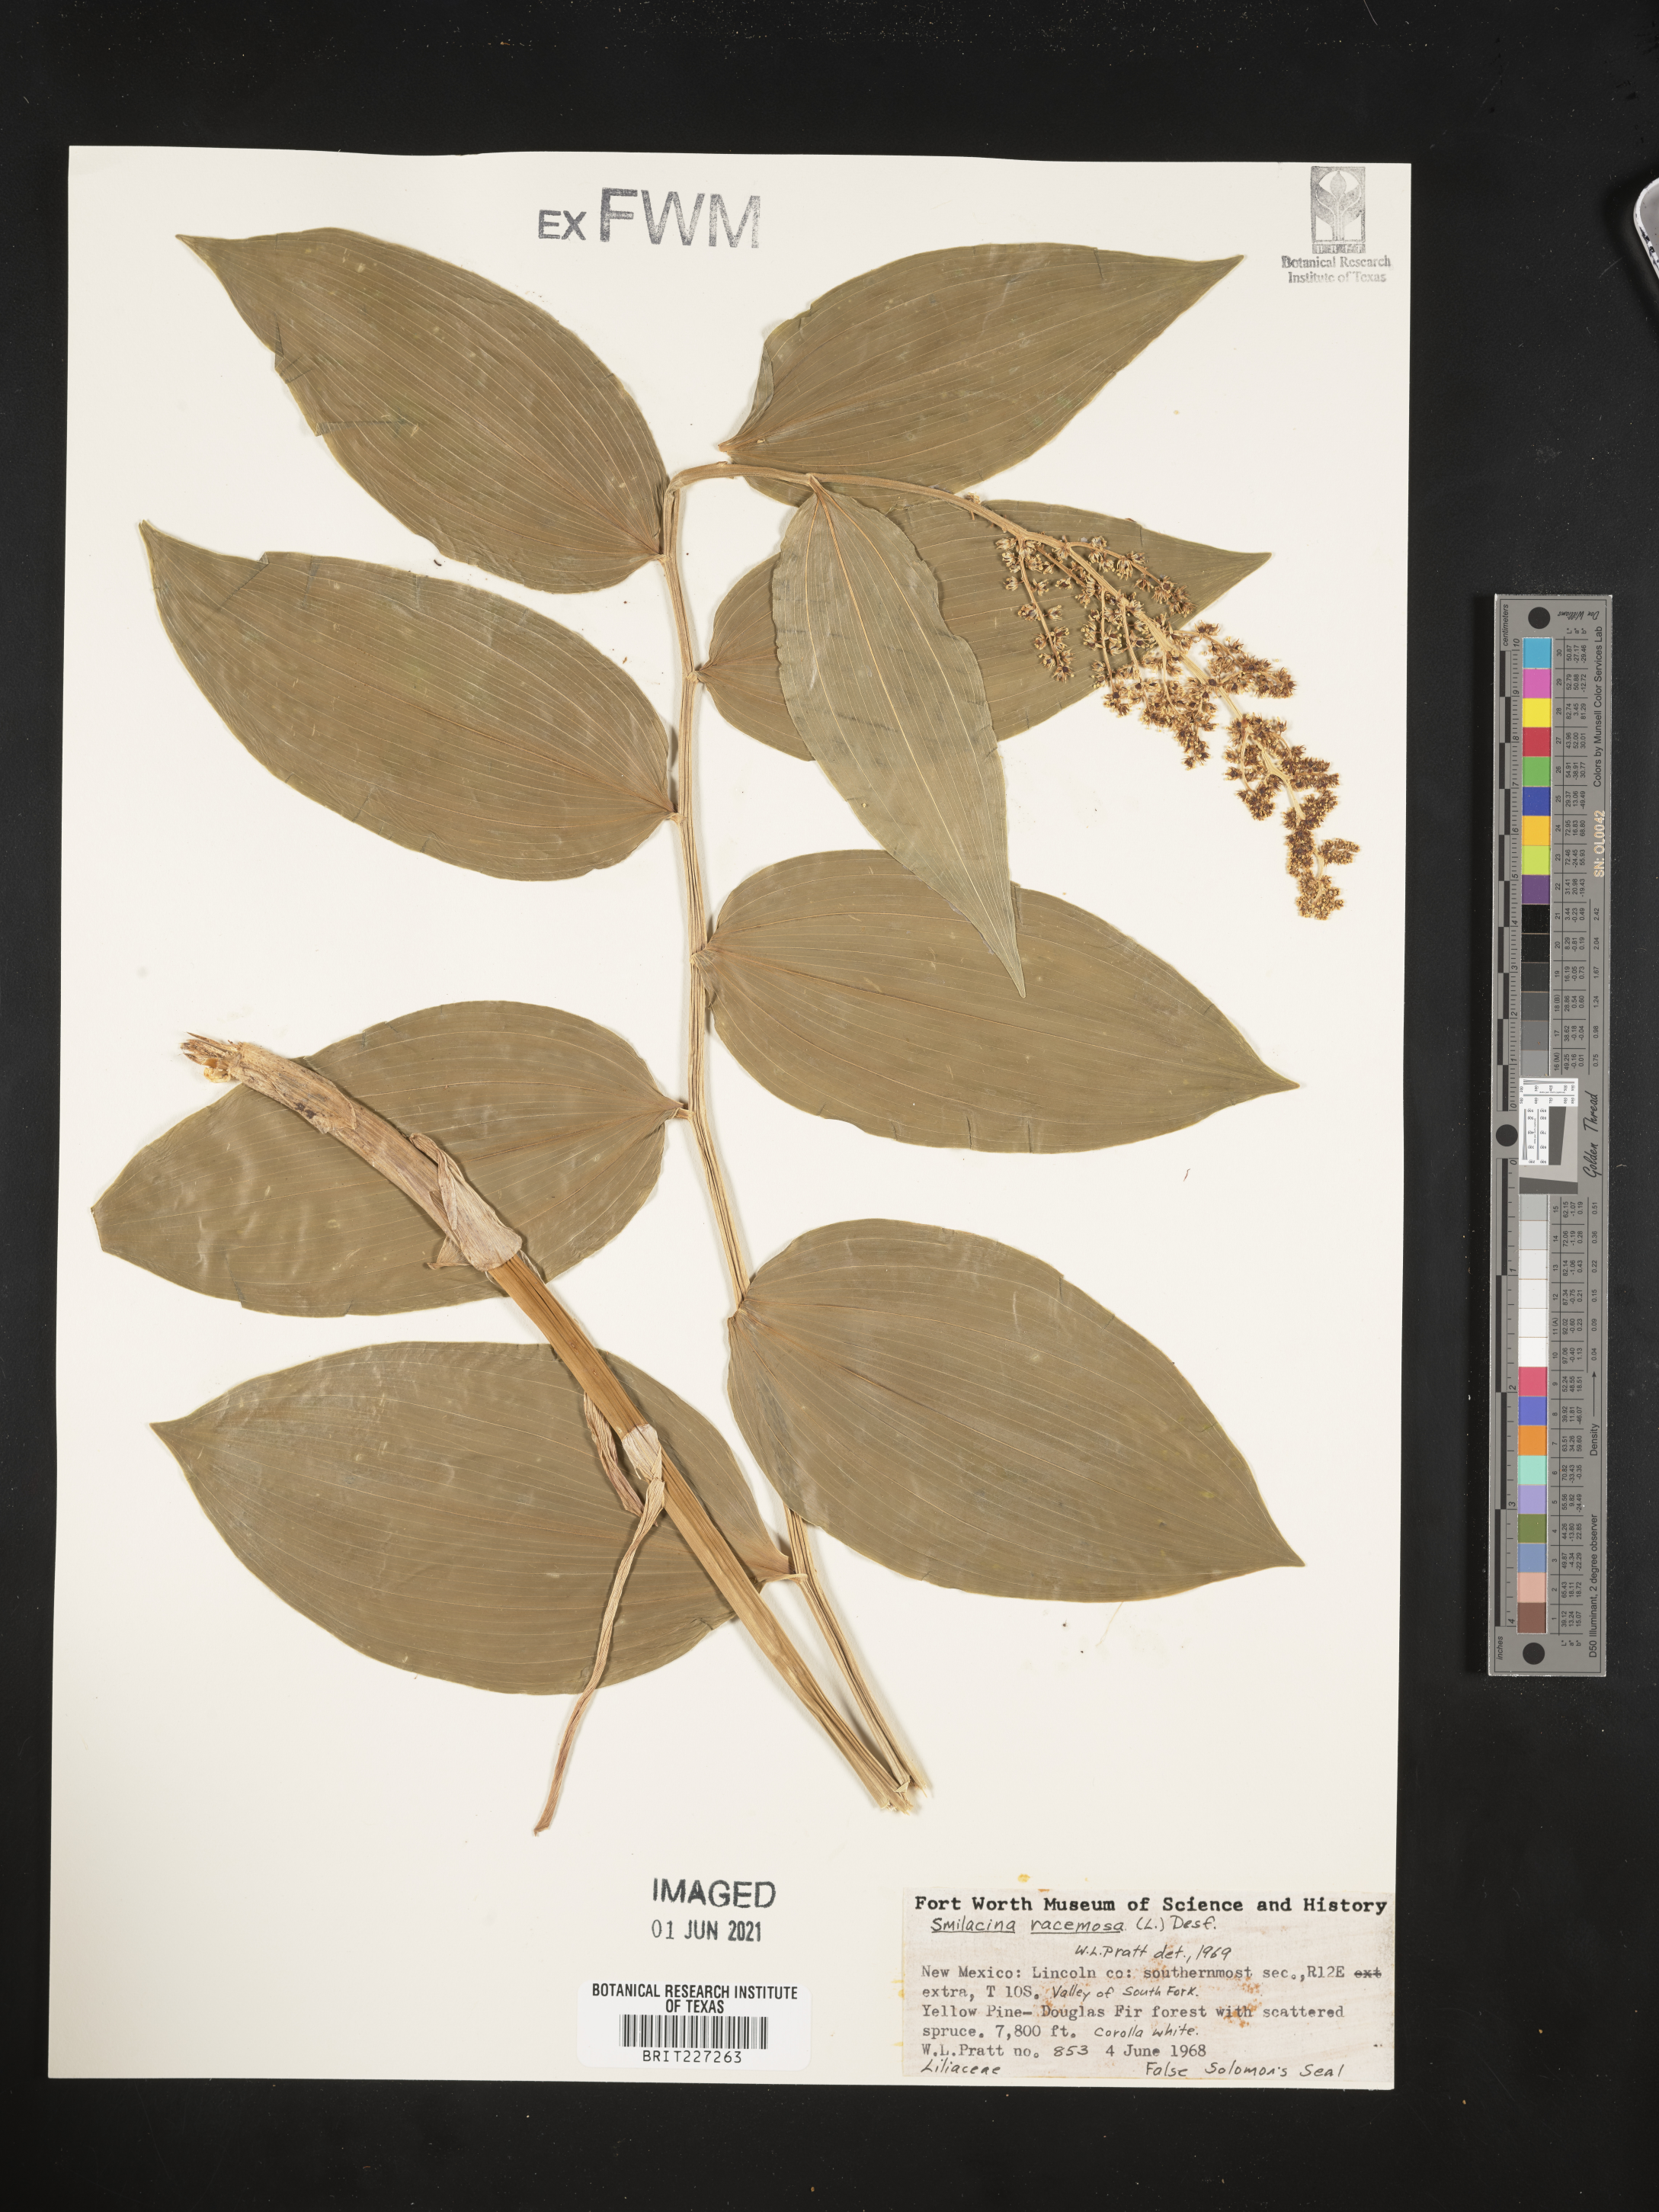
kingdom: Plantae
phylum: Tracheophyta
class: Liliopsida
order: Asparagales
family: Asparagaceae
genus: Maianthemum
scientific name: Maianthemum racemosum
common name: False spikenard
